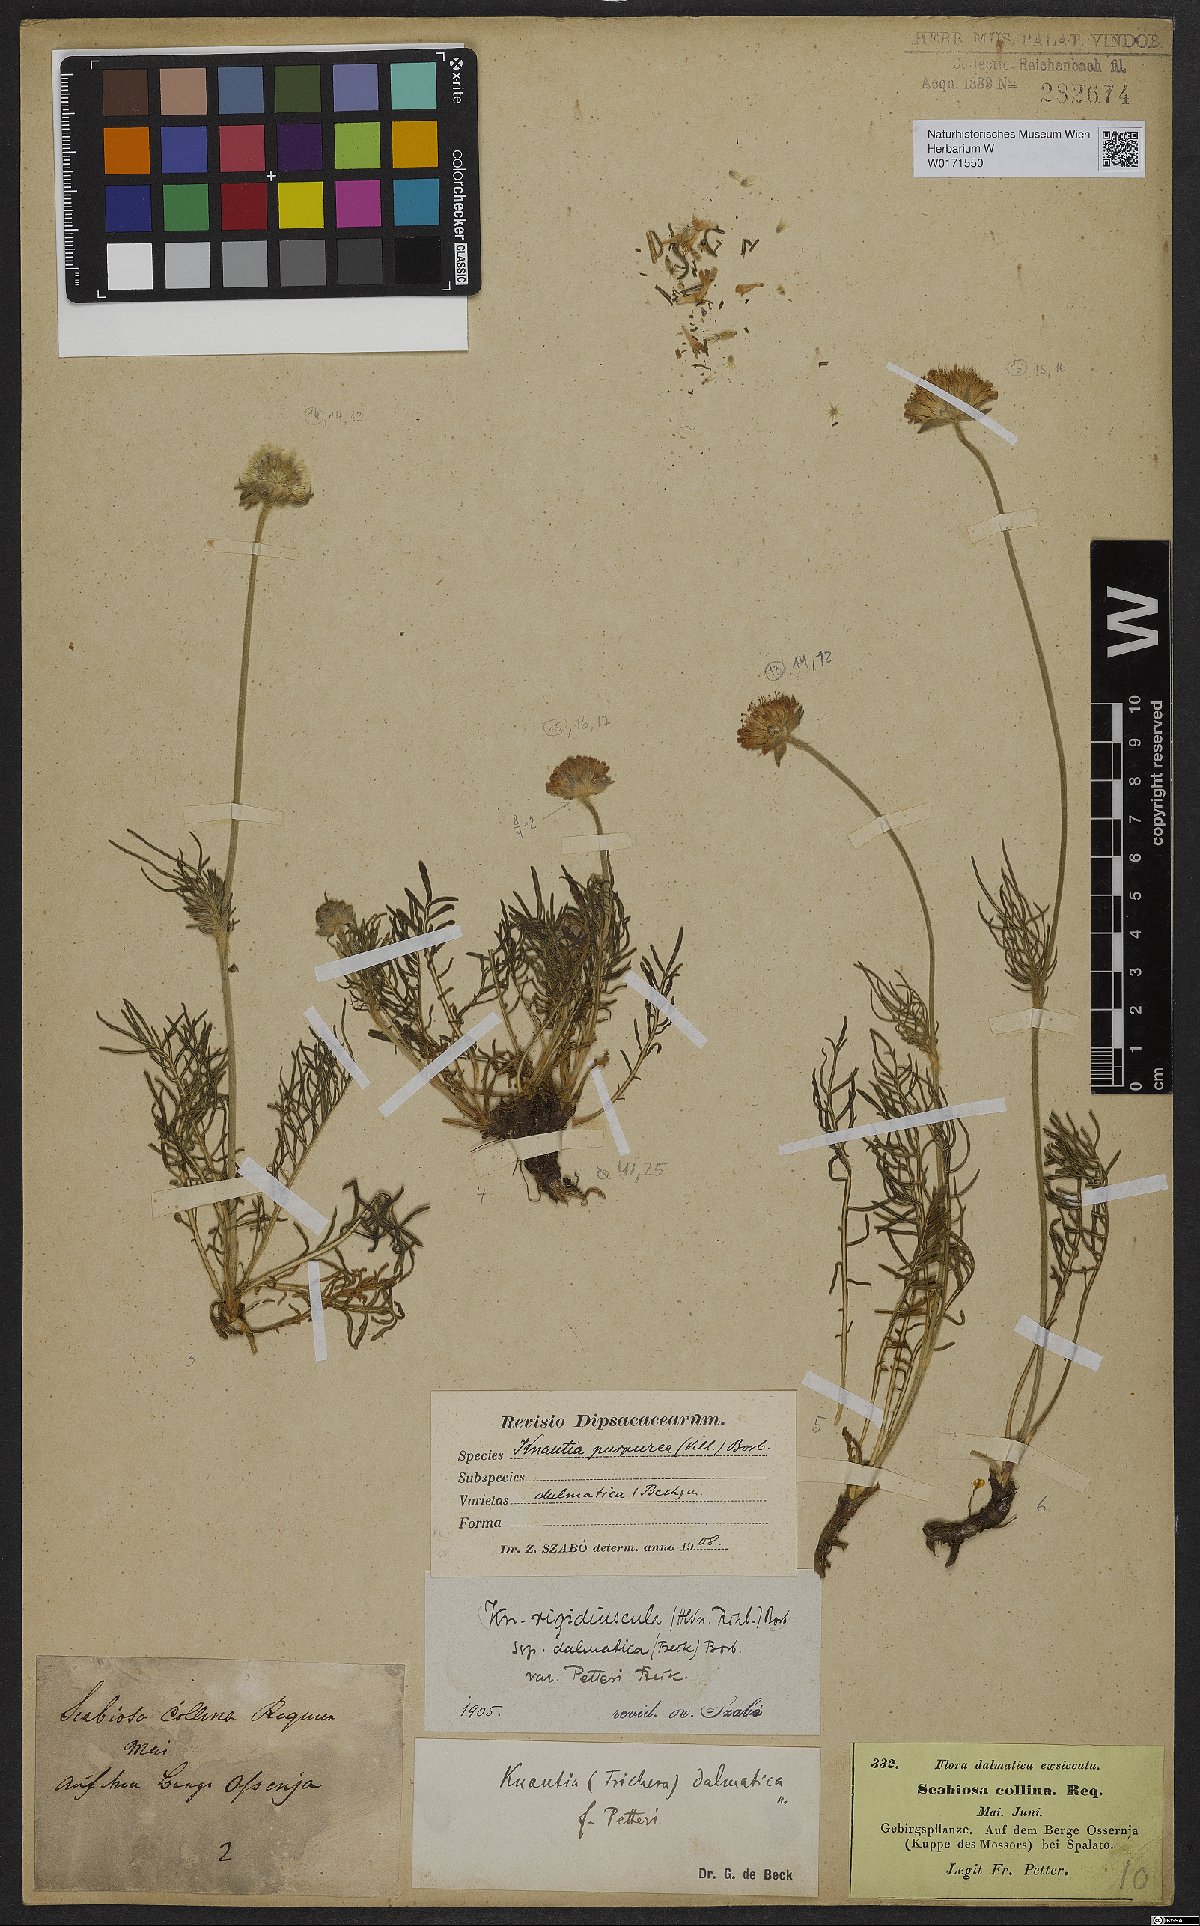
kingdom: Plantae
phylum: Tracheophyta
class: Magnoliopsida
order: Dipsacales
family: Caprifoliaceae
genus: Knautia
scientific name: Knautia collina
